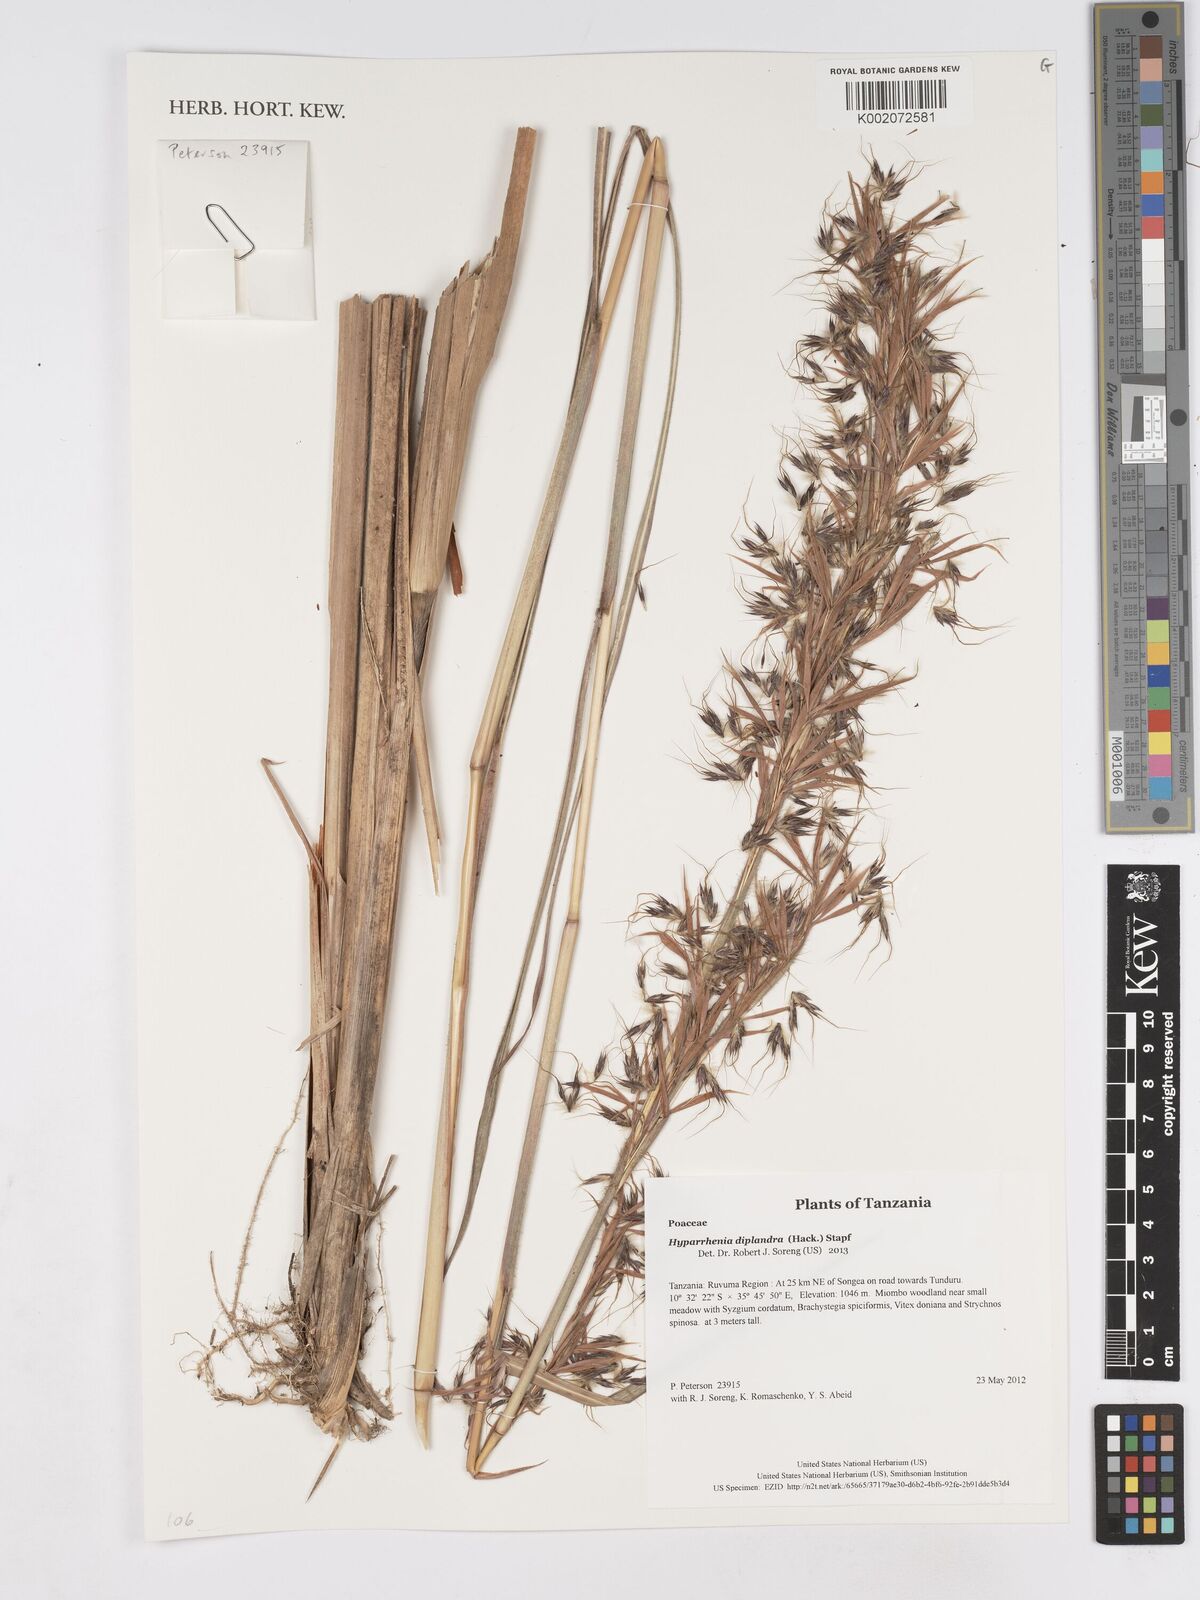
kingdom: Plantae
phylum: Tracheophyta
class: Liliopsida
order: Poales
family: Poaceae
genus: Hyparrhenia
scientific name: Hyparrhenia diplandra
